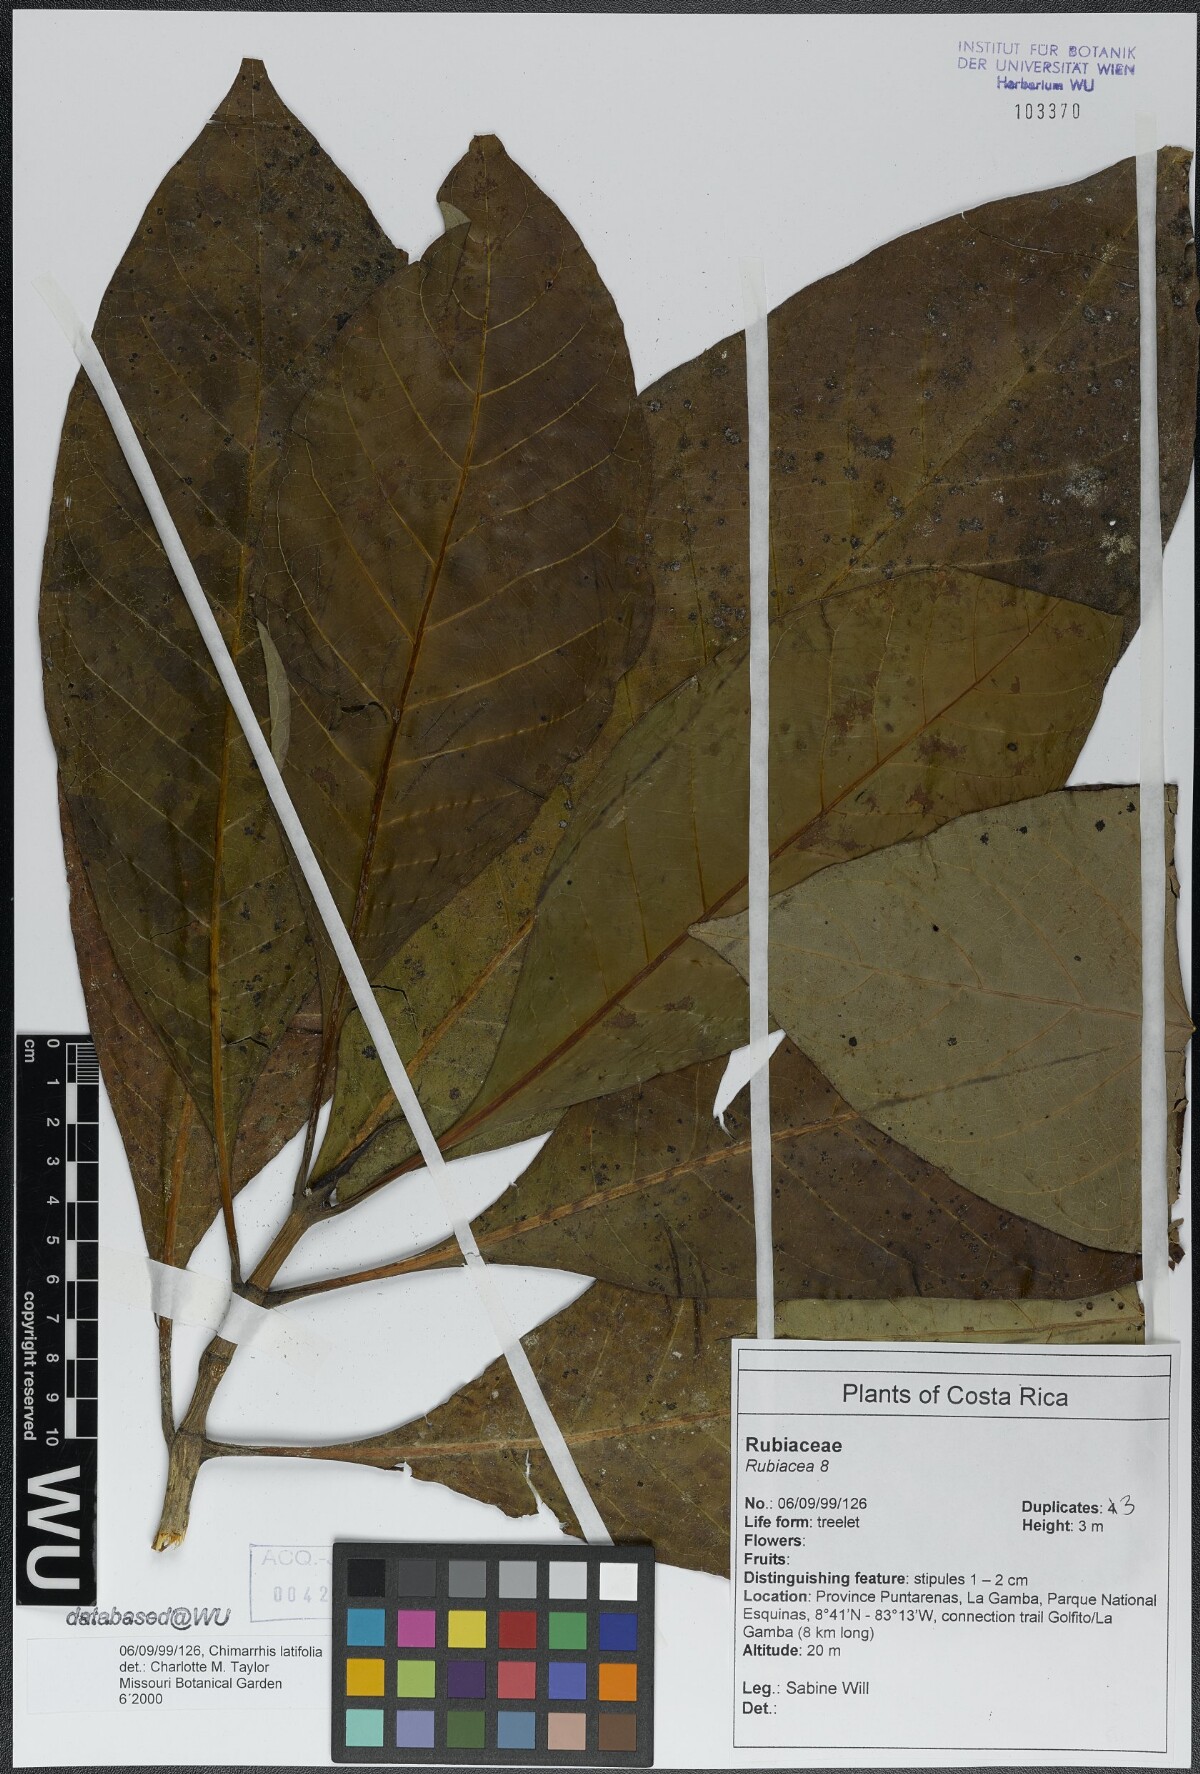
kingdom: Plantae
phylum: Tracheophyta
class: Magnoliopsida
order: Gentianales
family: Rubiaceae
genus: Chimarrhis
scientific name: Chimarrhis latifolia
